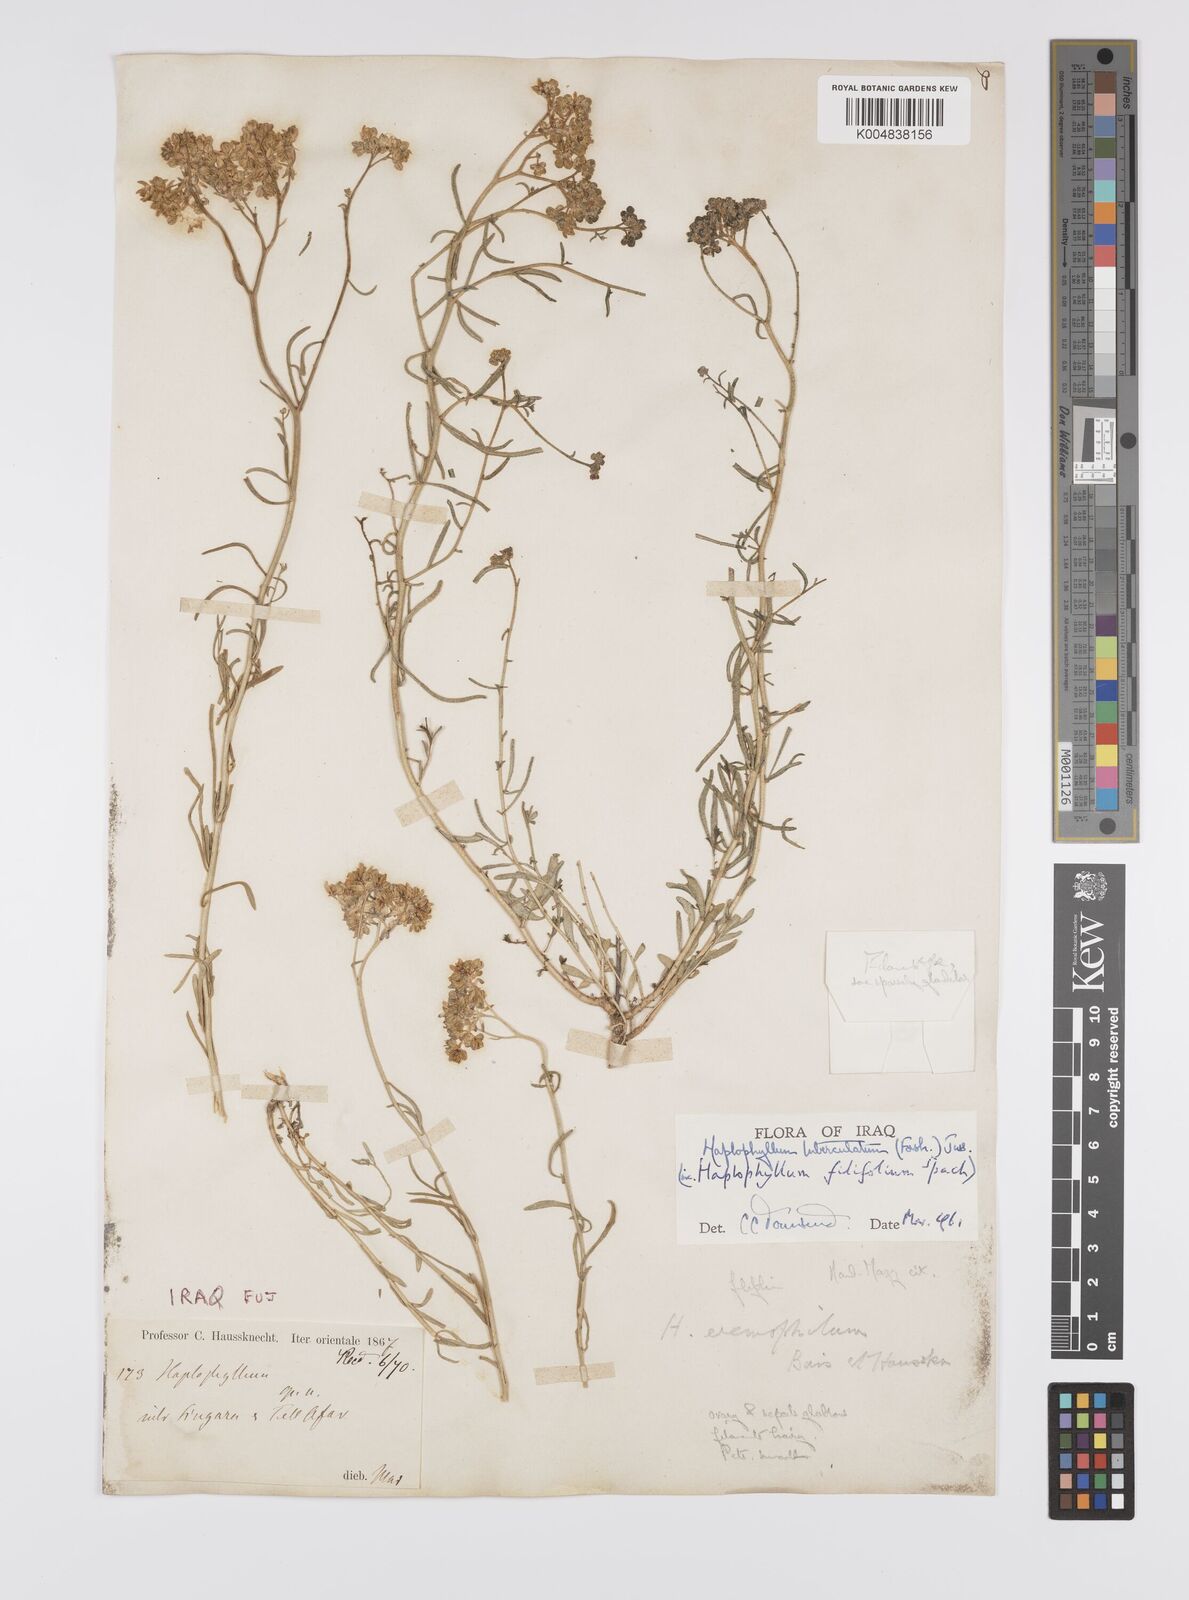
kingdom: Plantae
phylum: Tracheophyta
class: Magnoliopsida
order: Sapindales
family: Rutaceae
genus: Haplophyllum
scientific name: Haplophyllum tuberculatum
